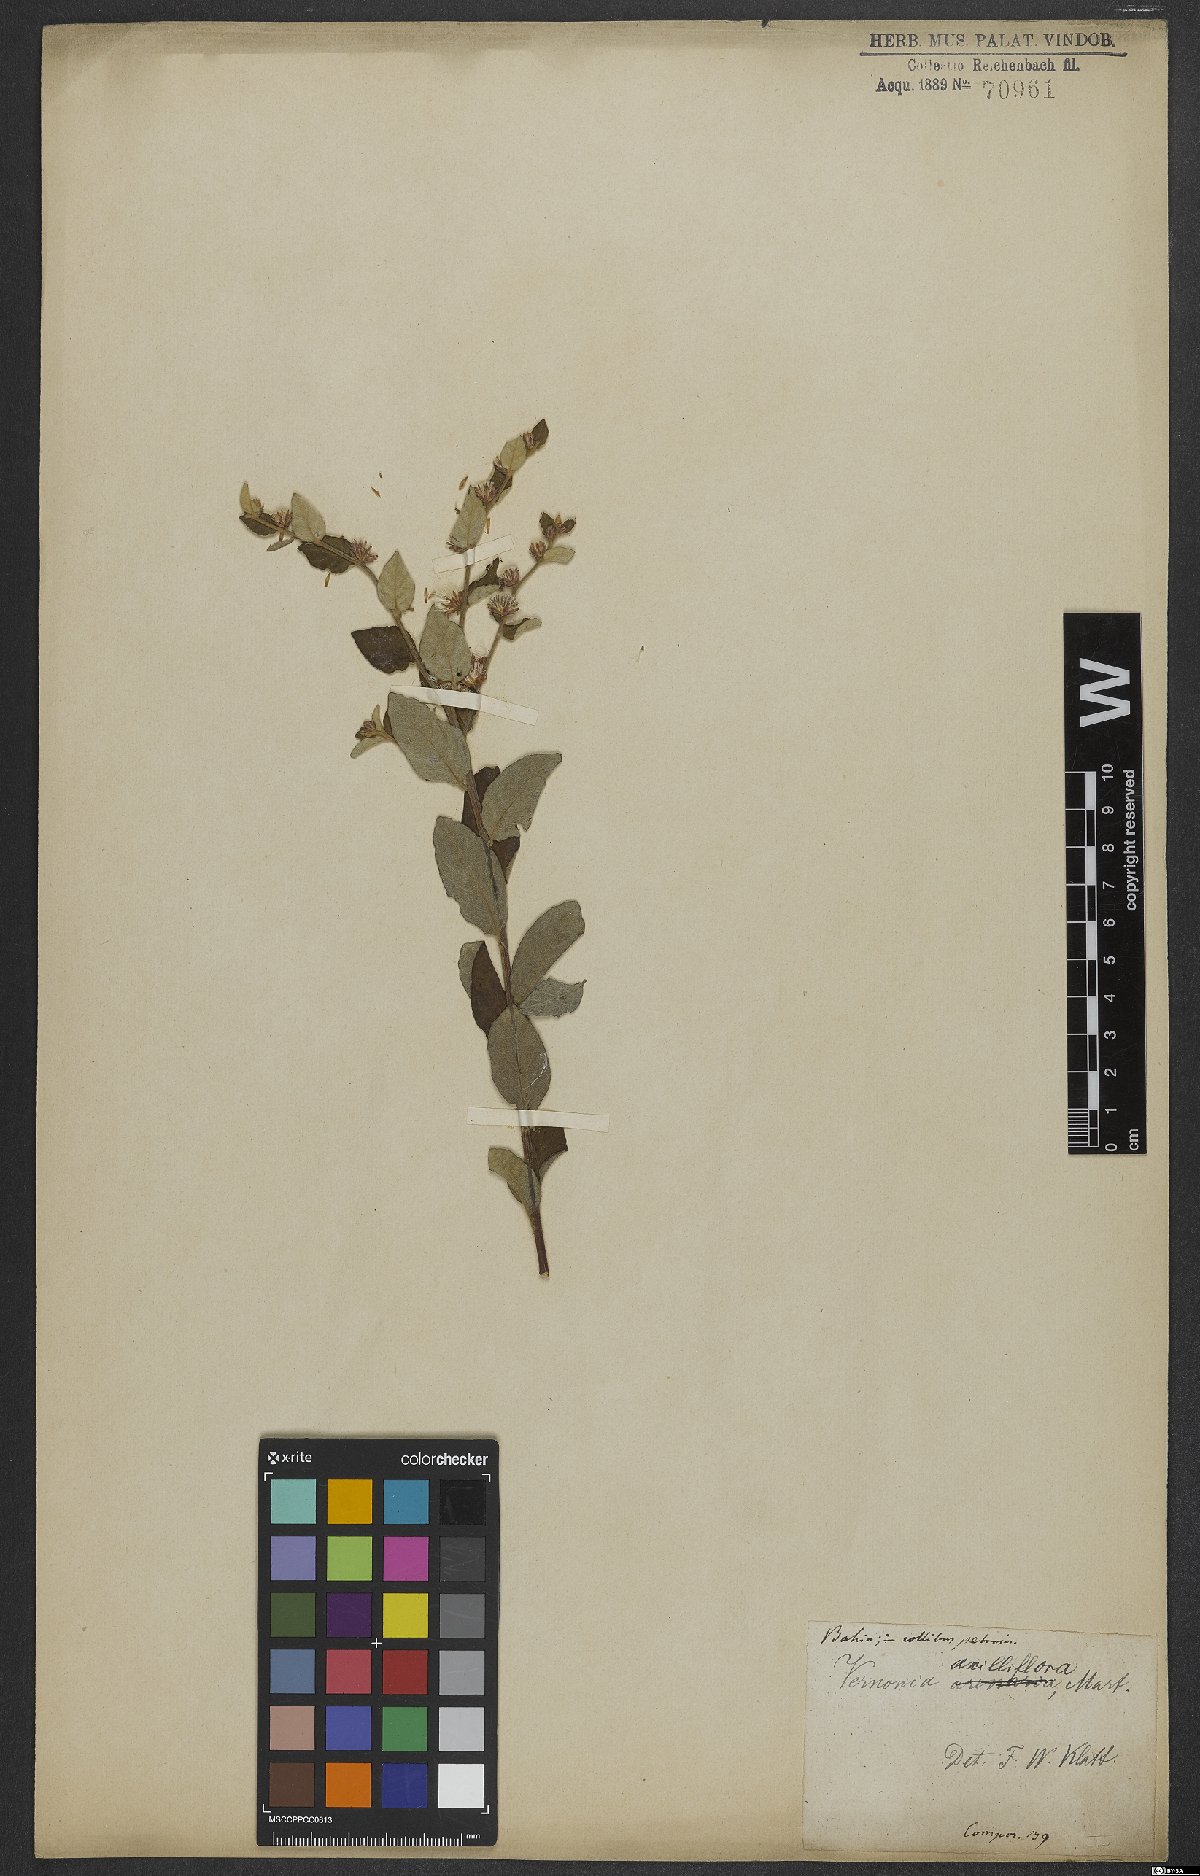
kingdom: Plantae
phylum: Tracheophyta
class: Magnoliopsida
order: Asterales
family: Asteraceae
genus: Lepidaploa
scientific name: Lepidaploa cotoneaster
